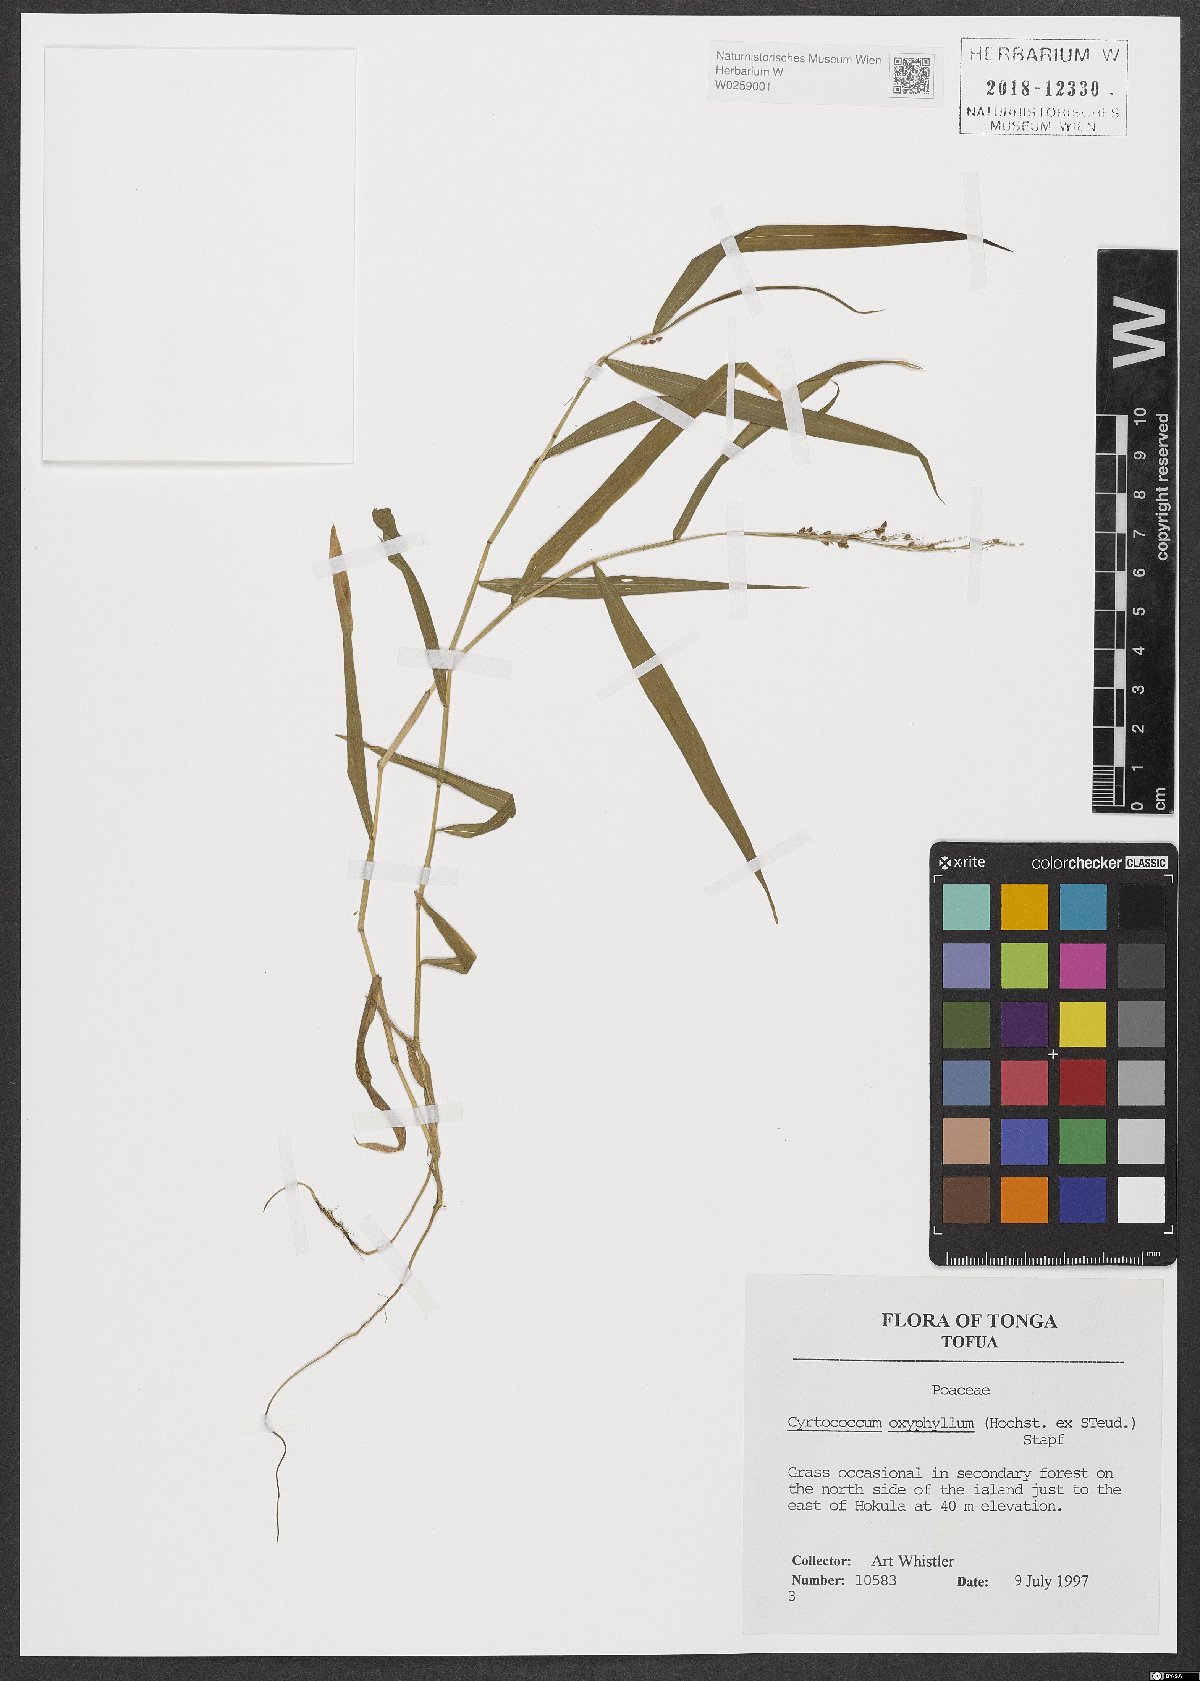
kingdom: Plantae
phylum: Tracheophyta
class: Liliopsida
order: Poales
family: Poaceae
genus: Cyrtococcum
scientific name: Cyrtococcum oxyphyllum
